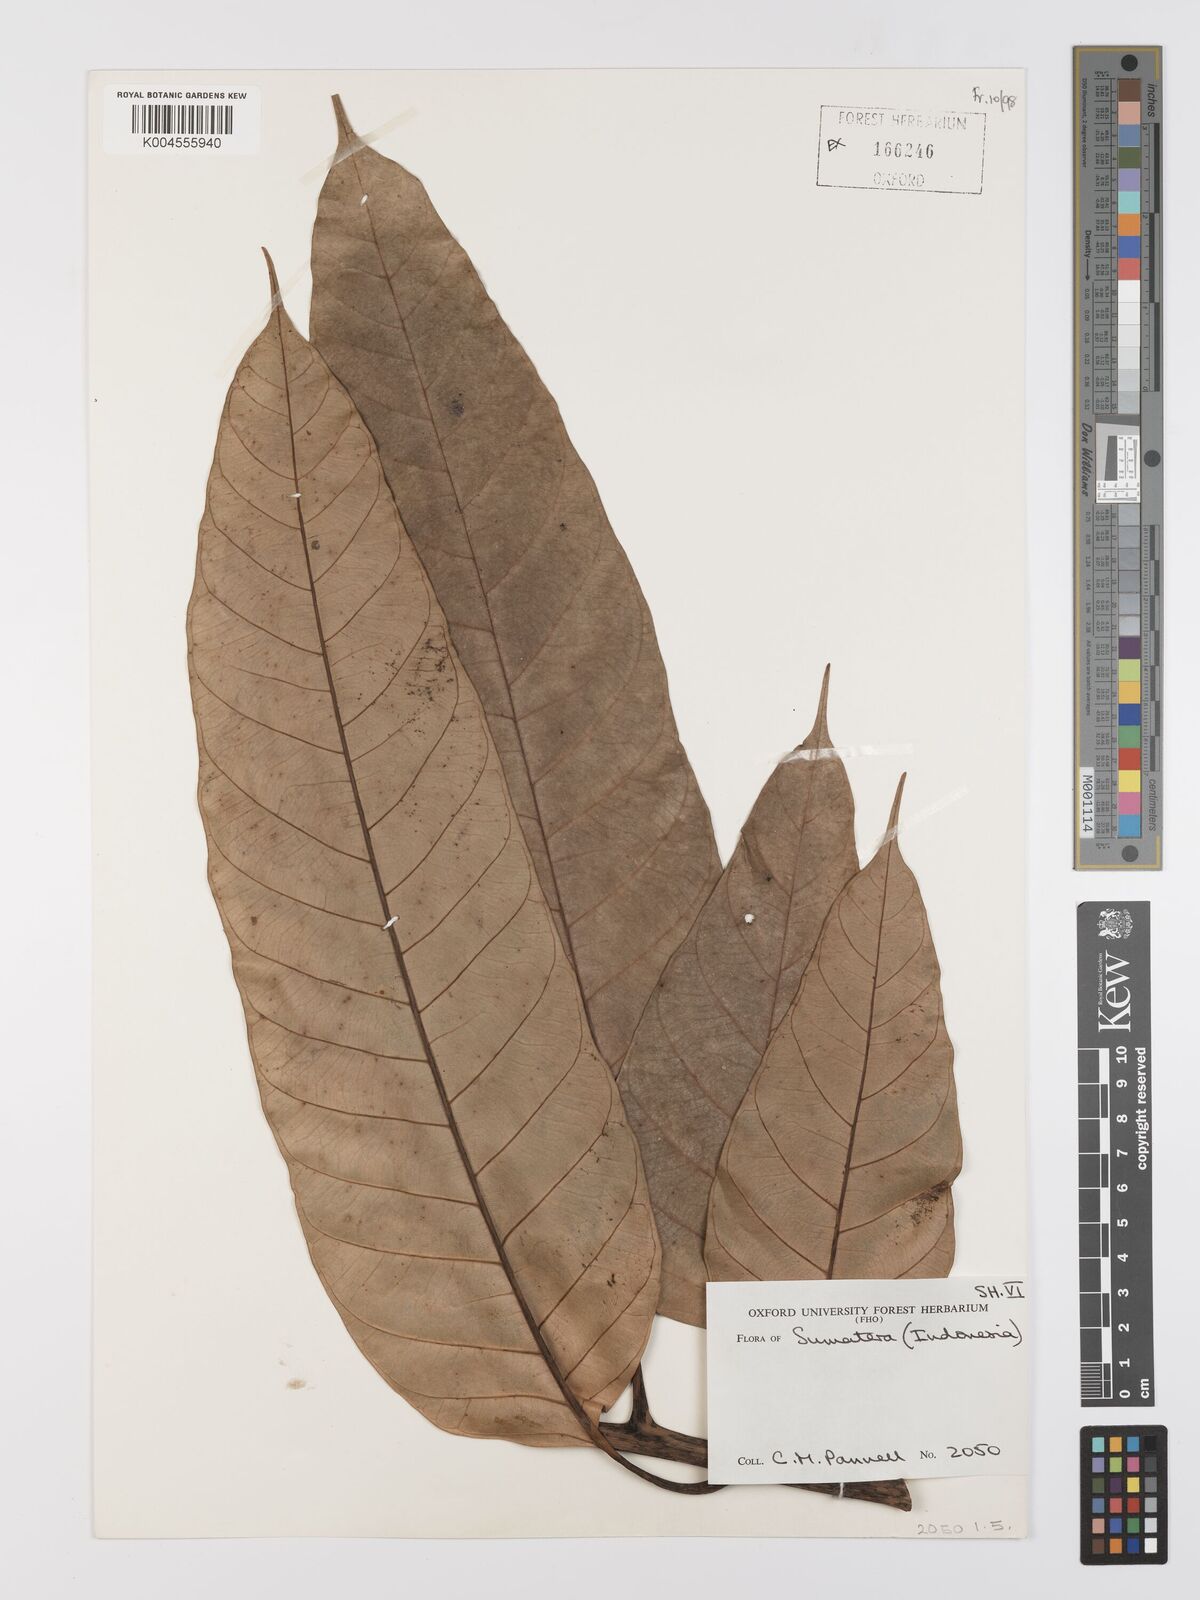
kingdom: Plantae
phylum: Tracheophyta
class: Magnoliopsida
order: Rosales
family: Moraceae
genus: Artocarpus
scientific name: Artocarpus anisophyllus
